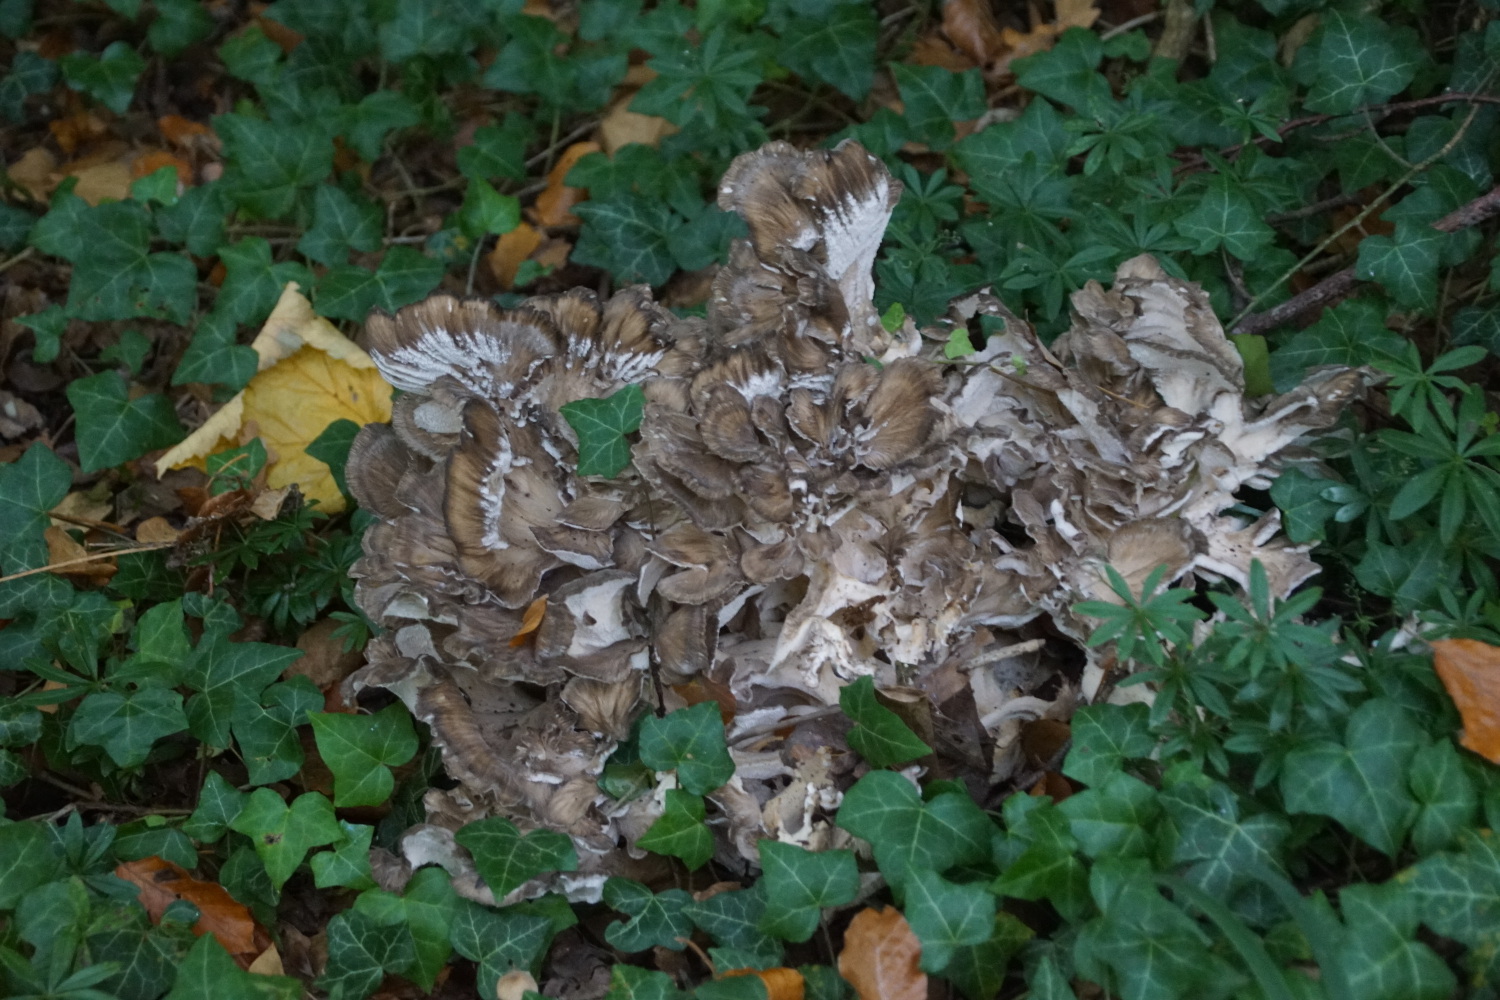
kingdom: Fungi
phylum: Basidiomycota
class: Agaricomycetes
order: Polyporales
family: Grifolaceae
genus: Grifola
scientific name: Grifola frondosa
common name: tueporesvamp
